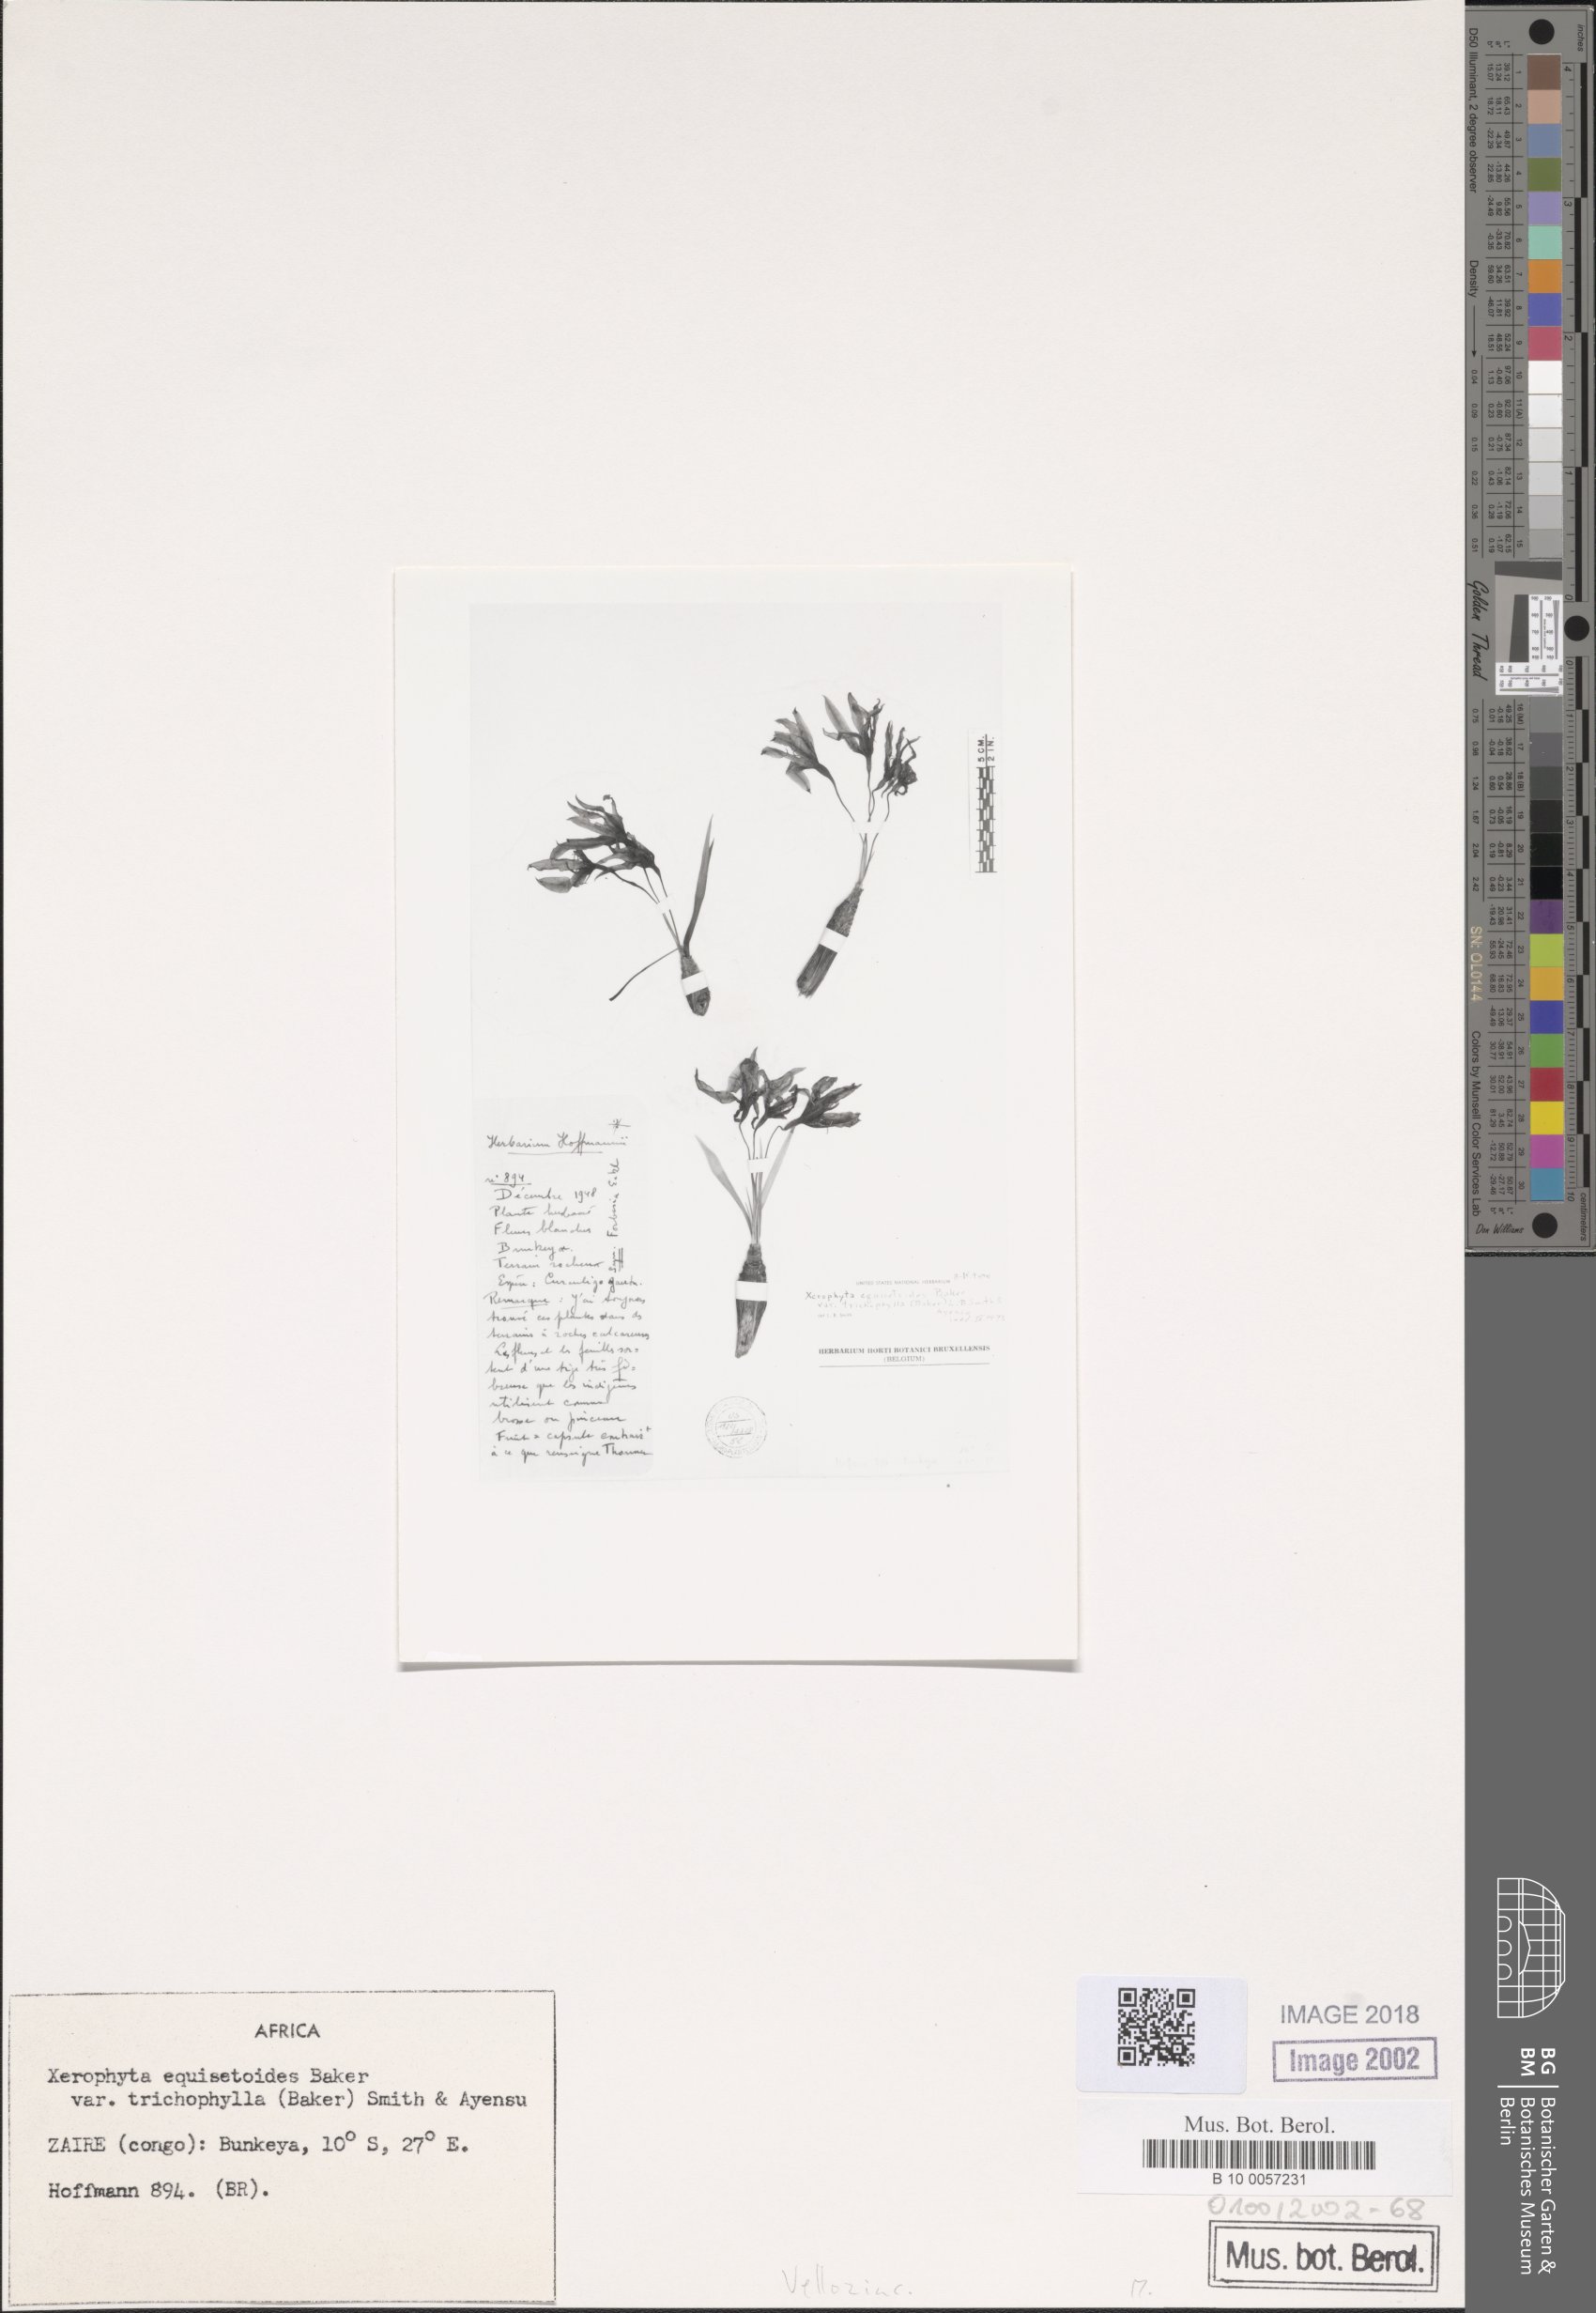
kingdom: Plantae
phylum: Tracheophyta
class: Liliopsida
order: Pandanales
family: Velloziaceae
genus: Xerophyta
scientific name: Xerophyta trichophylla
